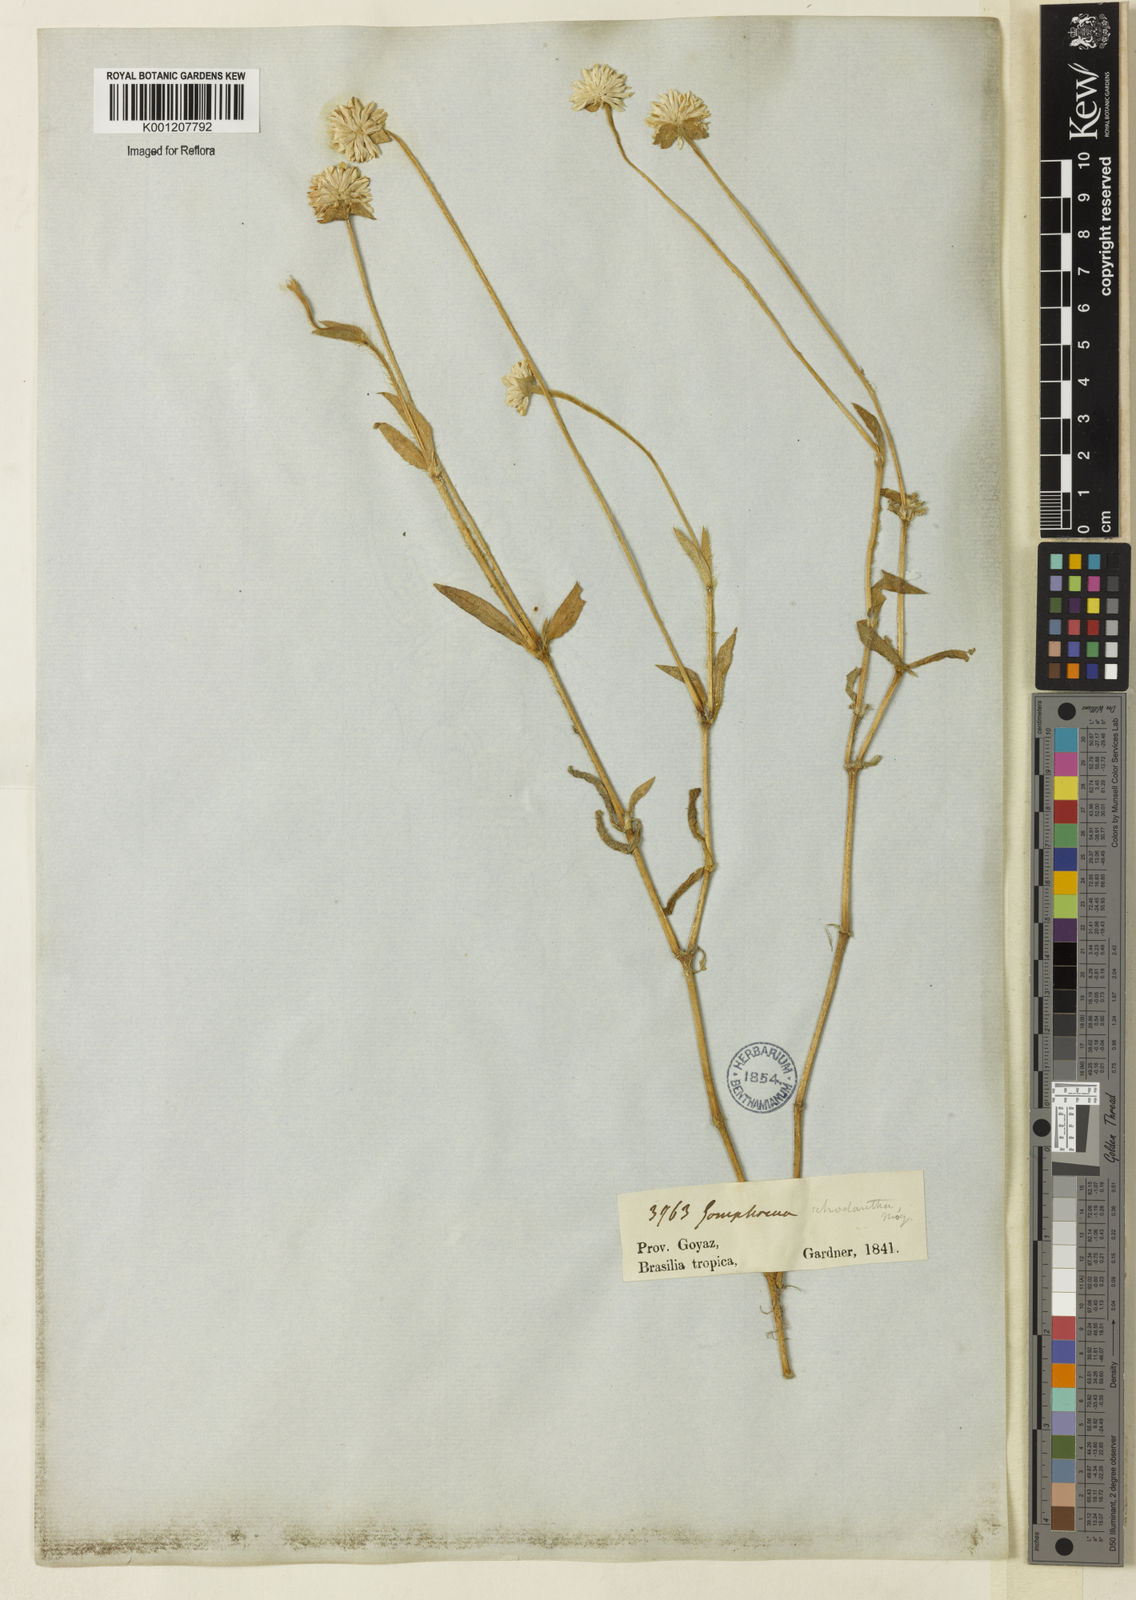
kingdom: Plantae
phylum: Tracheophyta
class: Magnoliopsida
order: Caryophyllales
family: Amaranthaceae
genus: Gomphrena
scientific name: Gomphrena desertorum
